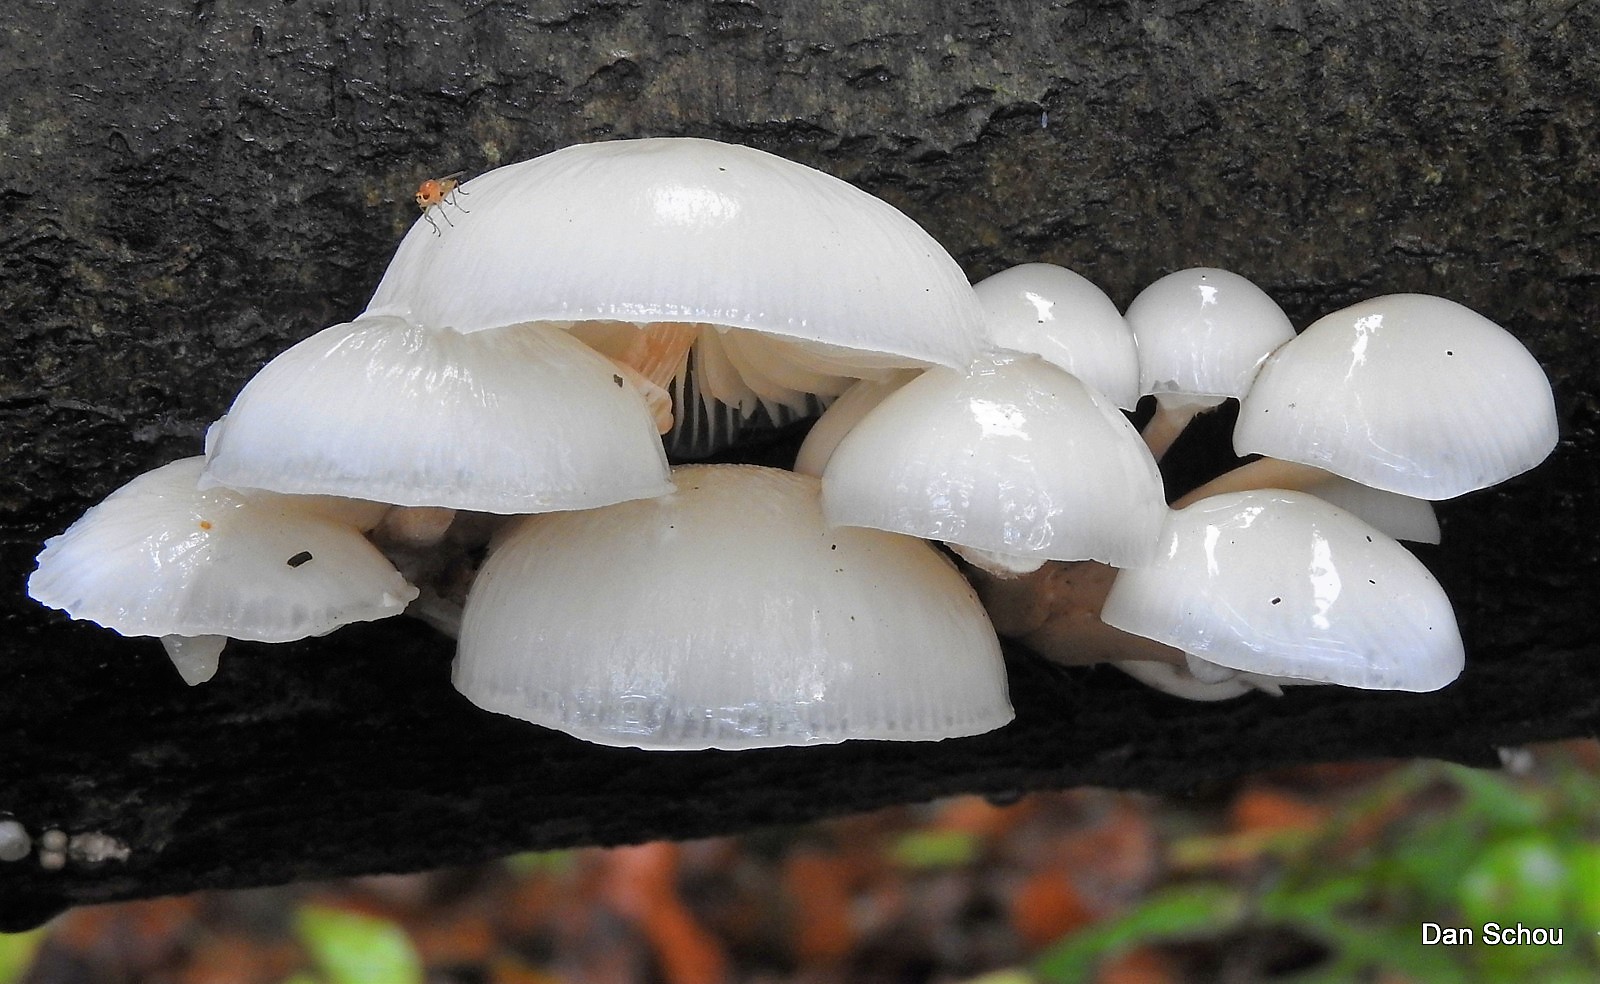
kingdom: Fungi
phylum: Basidiomycota
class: Agaricomycetes
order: Agaricales
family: Physalacriaceae
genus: Mucidula
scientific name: Mucidula mucida
